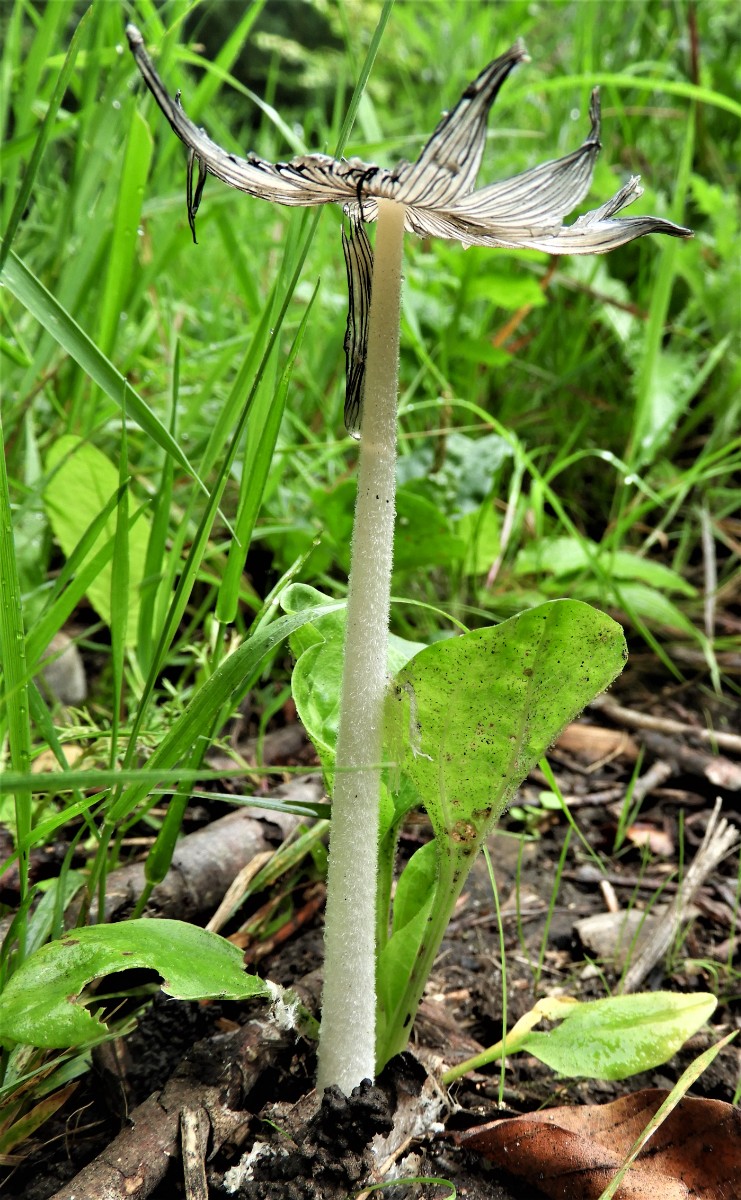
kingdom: Fungi
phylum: Basidiomycota
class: Agaricomycetes
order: Agaricales
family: Psathyrellaceae
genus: Coprinopsis
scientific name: Coprinopsis lagopus
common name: dunstokket blækhat
